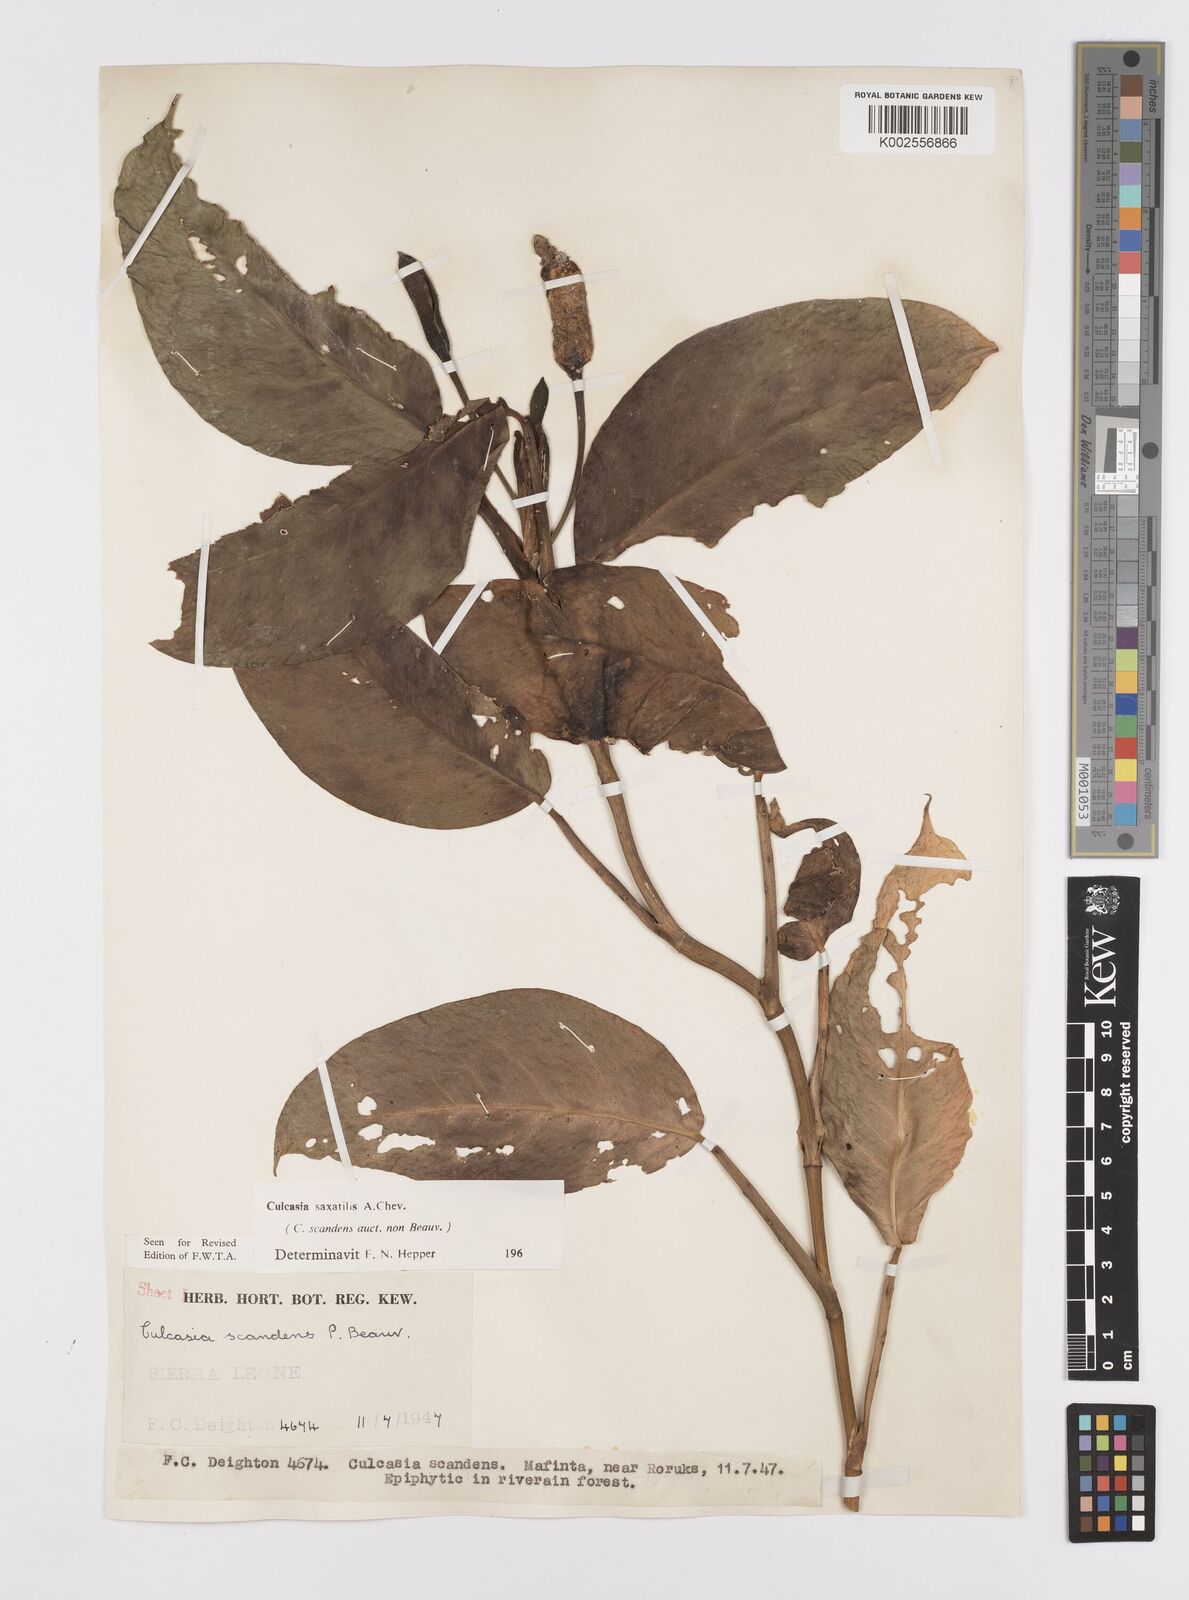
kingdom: Plantae
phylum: Tracheophyta
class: Liliopsida
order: Alismatales
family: Araceae
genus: Culcasia
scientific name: Culcasia scandens
